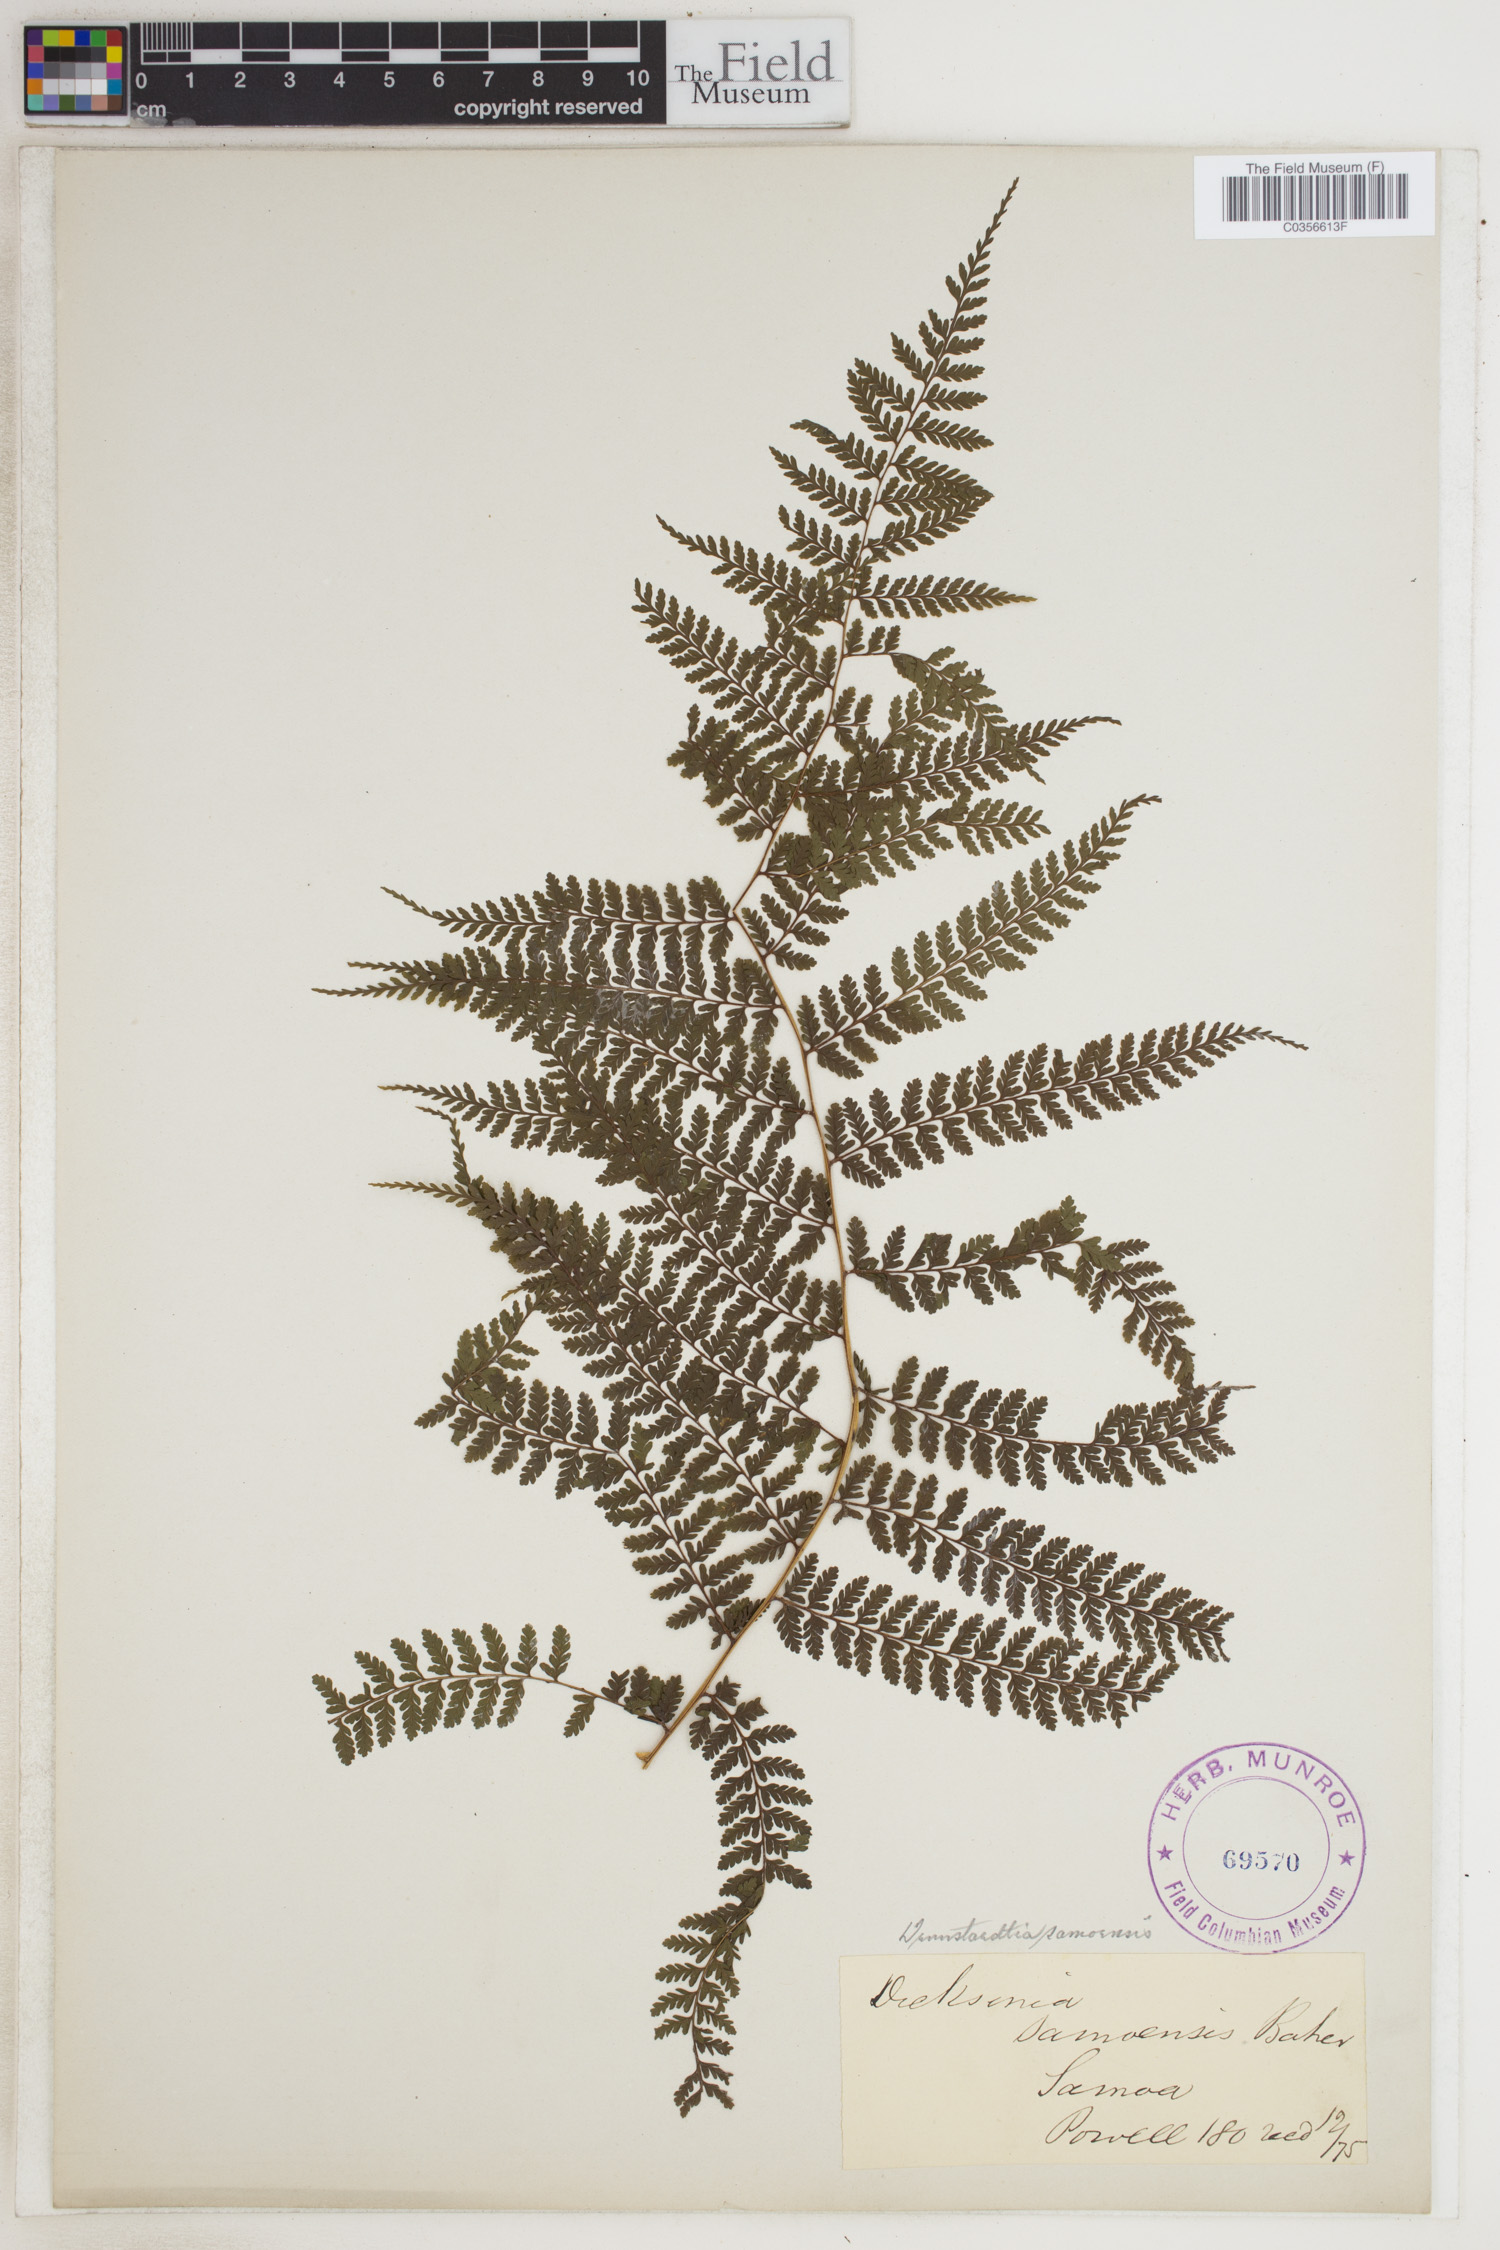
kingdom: Plantae
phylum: Tracheophyta
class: Polypodiopsida
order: Polypodiales
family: Dennstaedtiaceae
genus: Dennstaedtia
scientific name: Dennstaedtia samoensis
